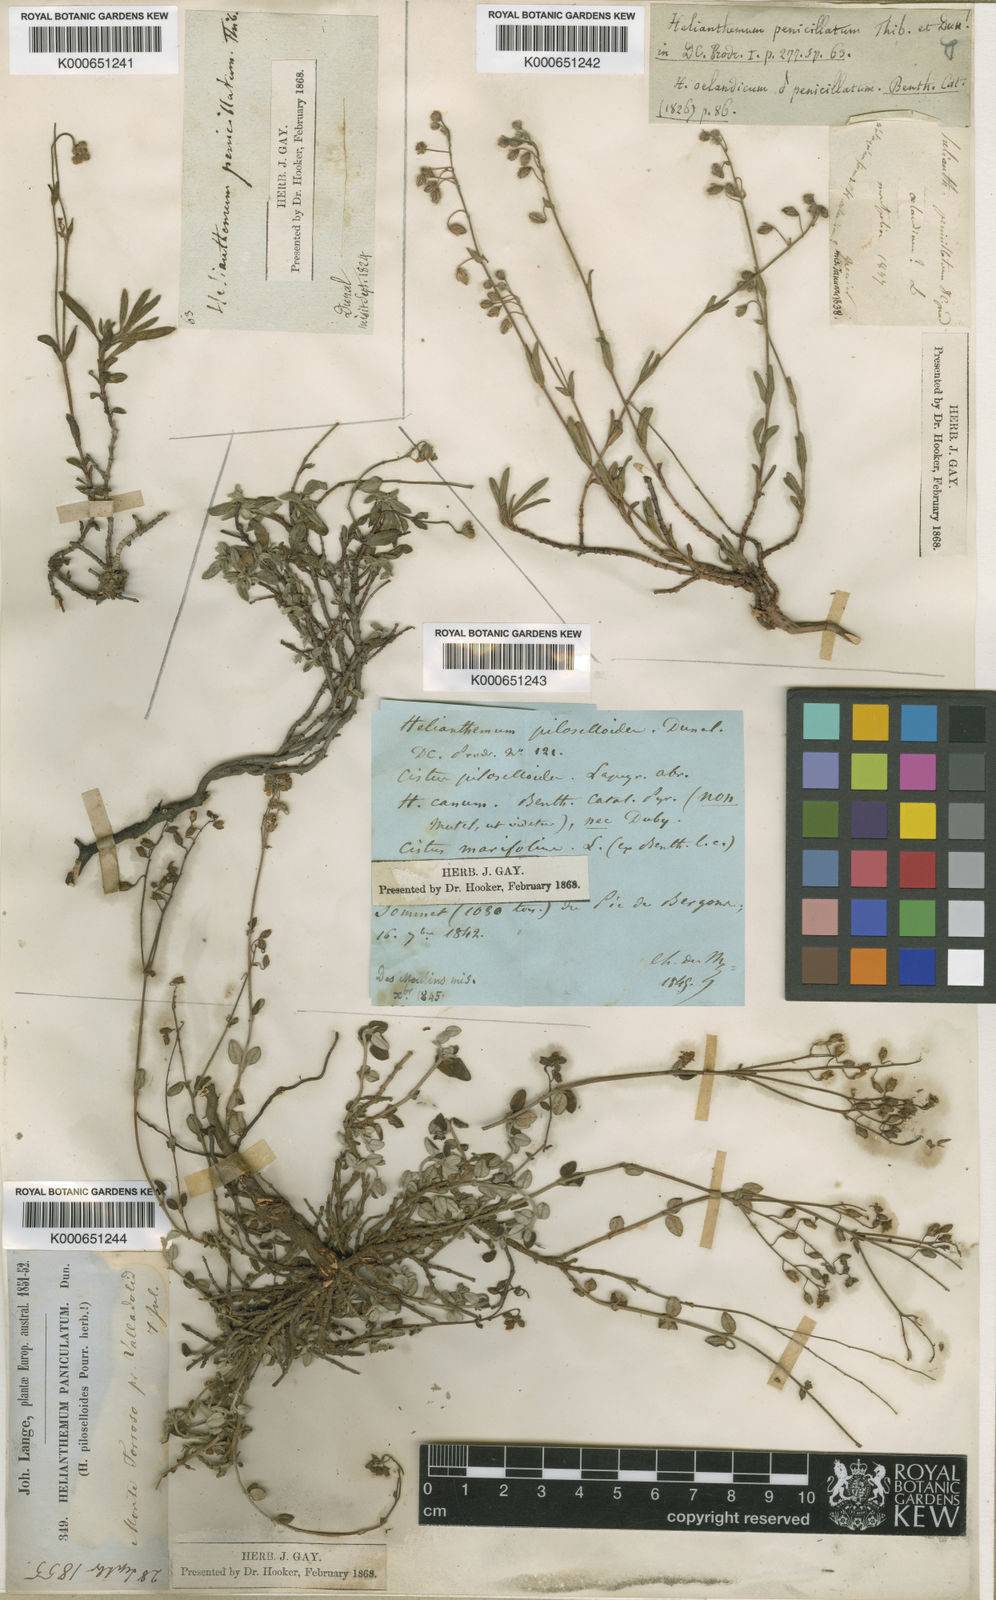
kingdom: Plantae
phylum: Tracheophyta
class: Magnoliopsida
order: Malvales
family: Cistaceae
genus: Helianthemum
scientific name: Helianthemum cinereum
